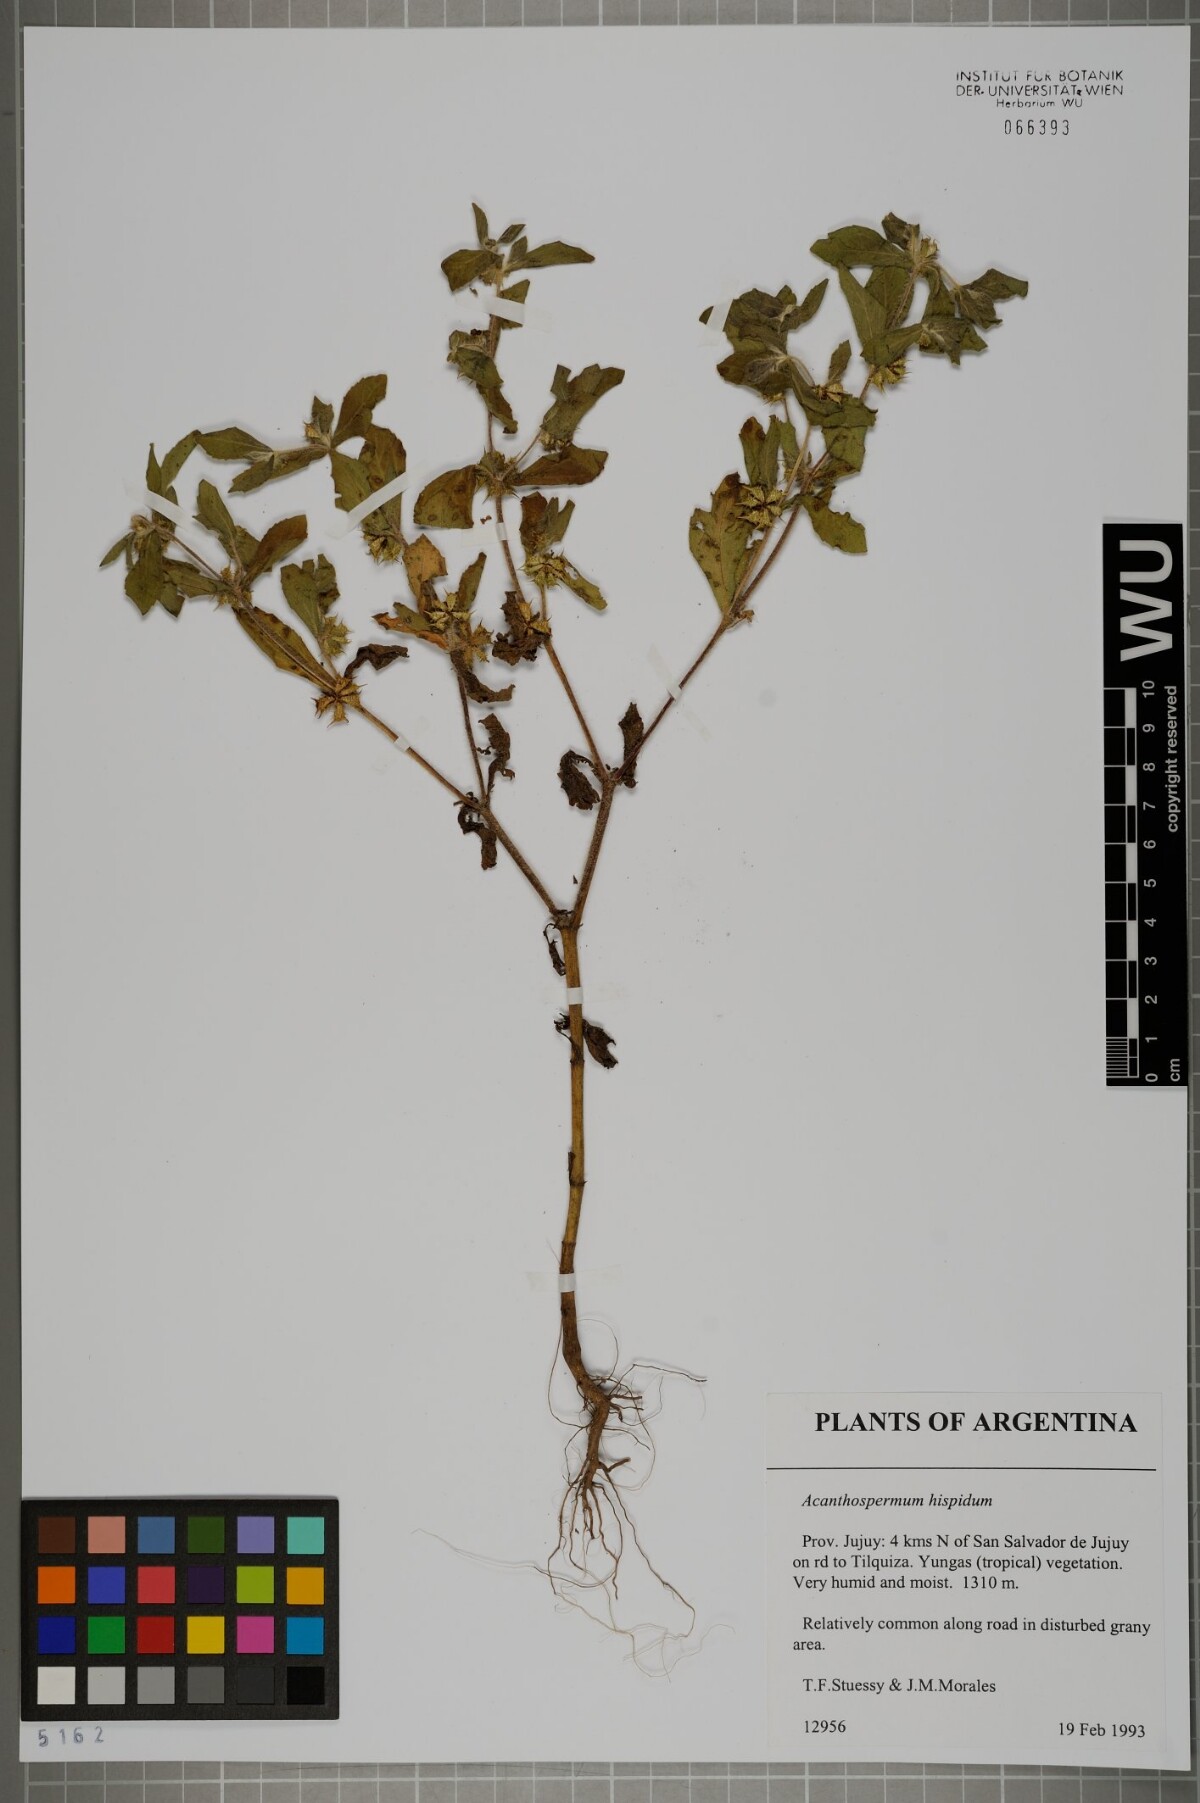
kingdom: Plantae
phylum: Tracheophyta
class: Magnoliopsida
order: Asterales
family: Asteraceae
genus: Acanthospermum
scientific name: Acanthospermum hispidum
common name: Hispid starbur
